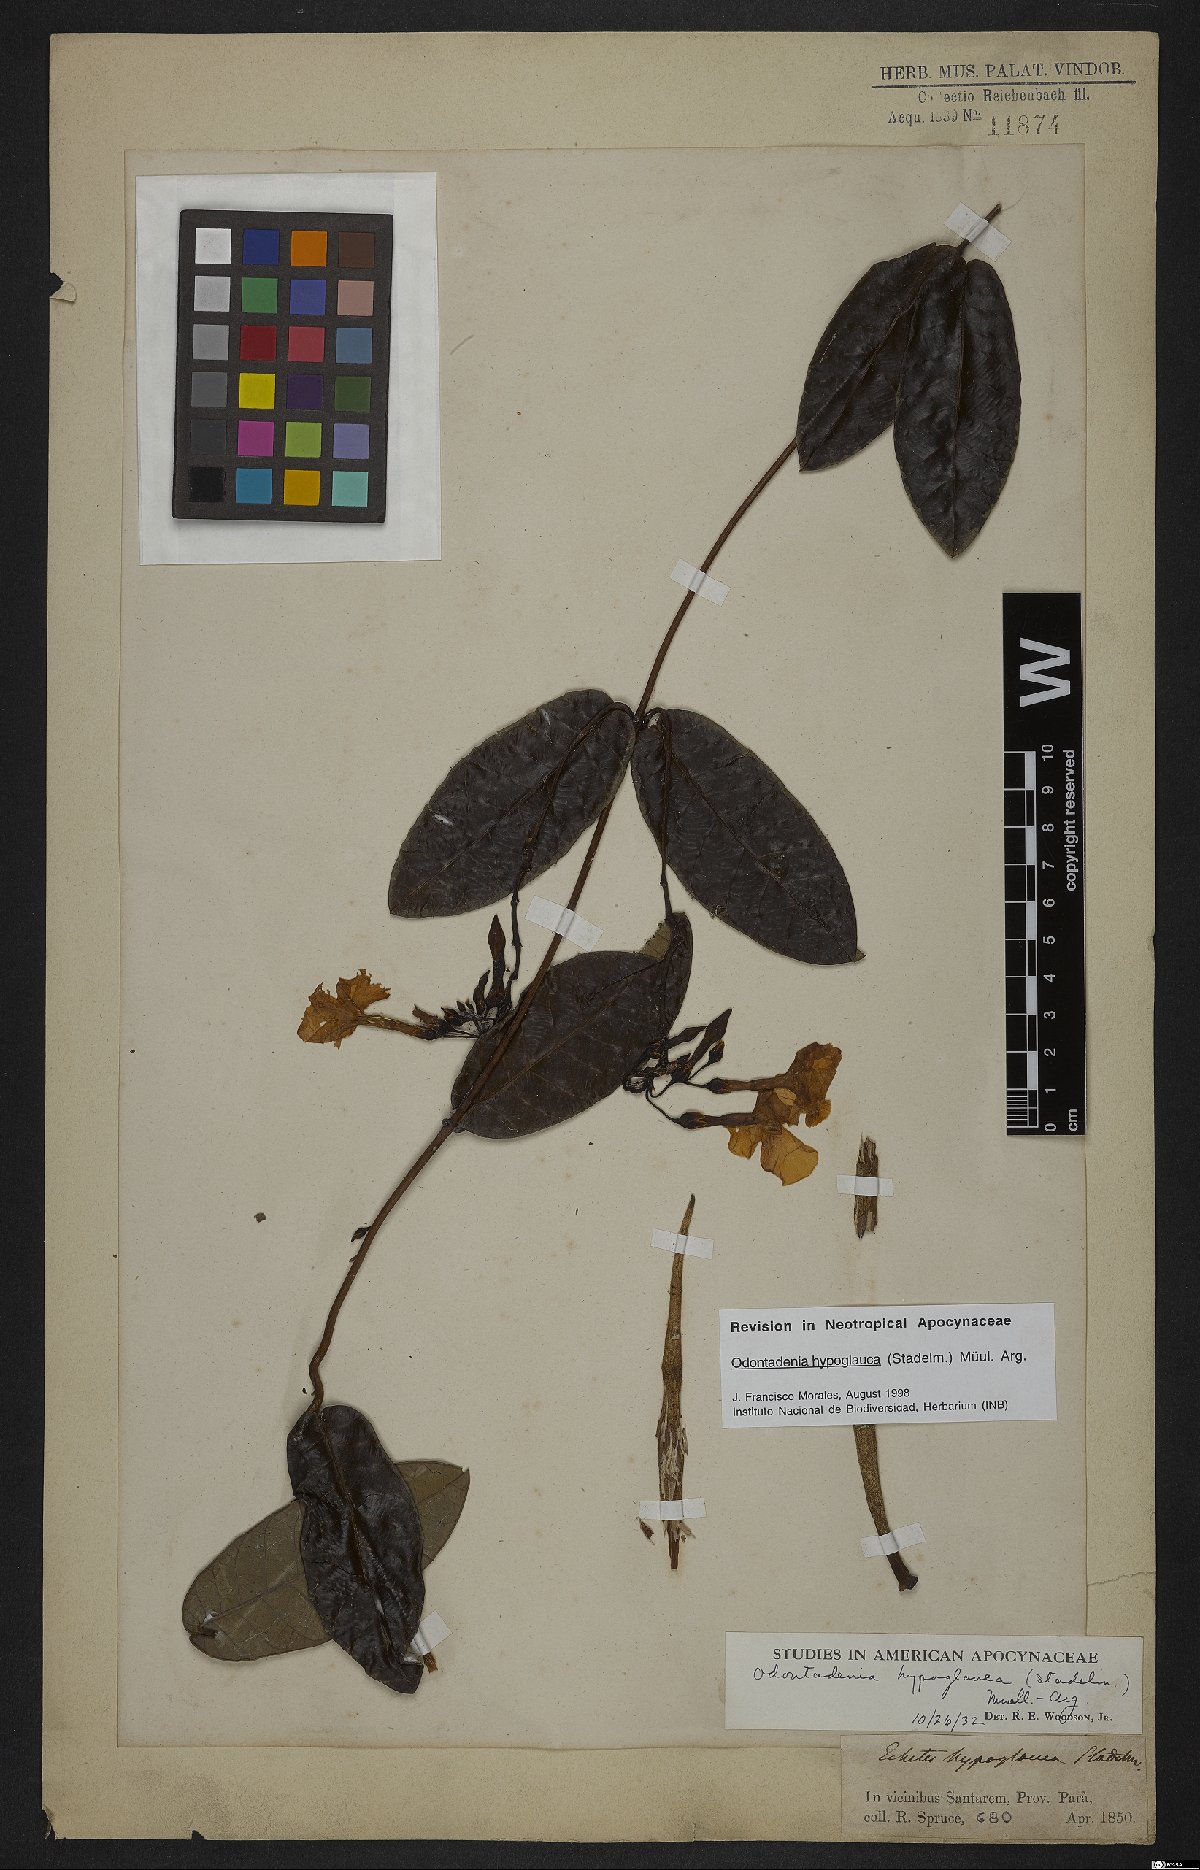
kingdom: Plantae
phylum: Tracheophyta
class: Magnoliopsida
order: Gentianales
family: Apocynaceae
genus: Odontadenia
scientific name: Odontadenia hypoglauca
